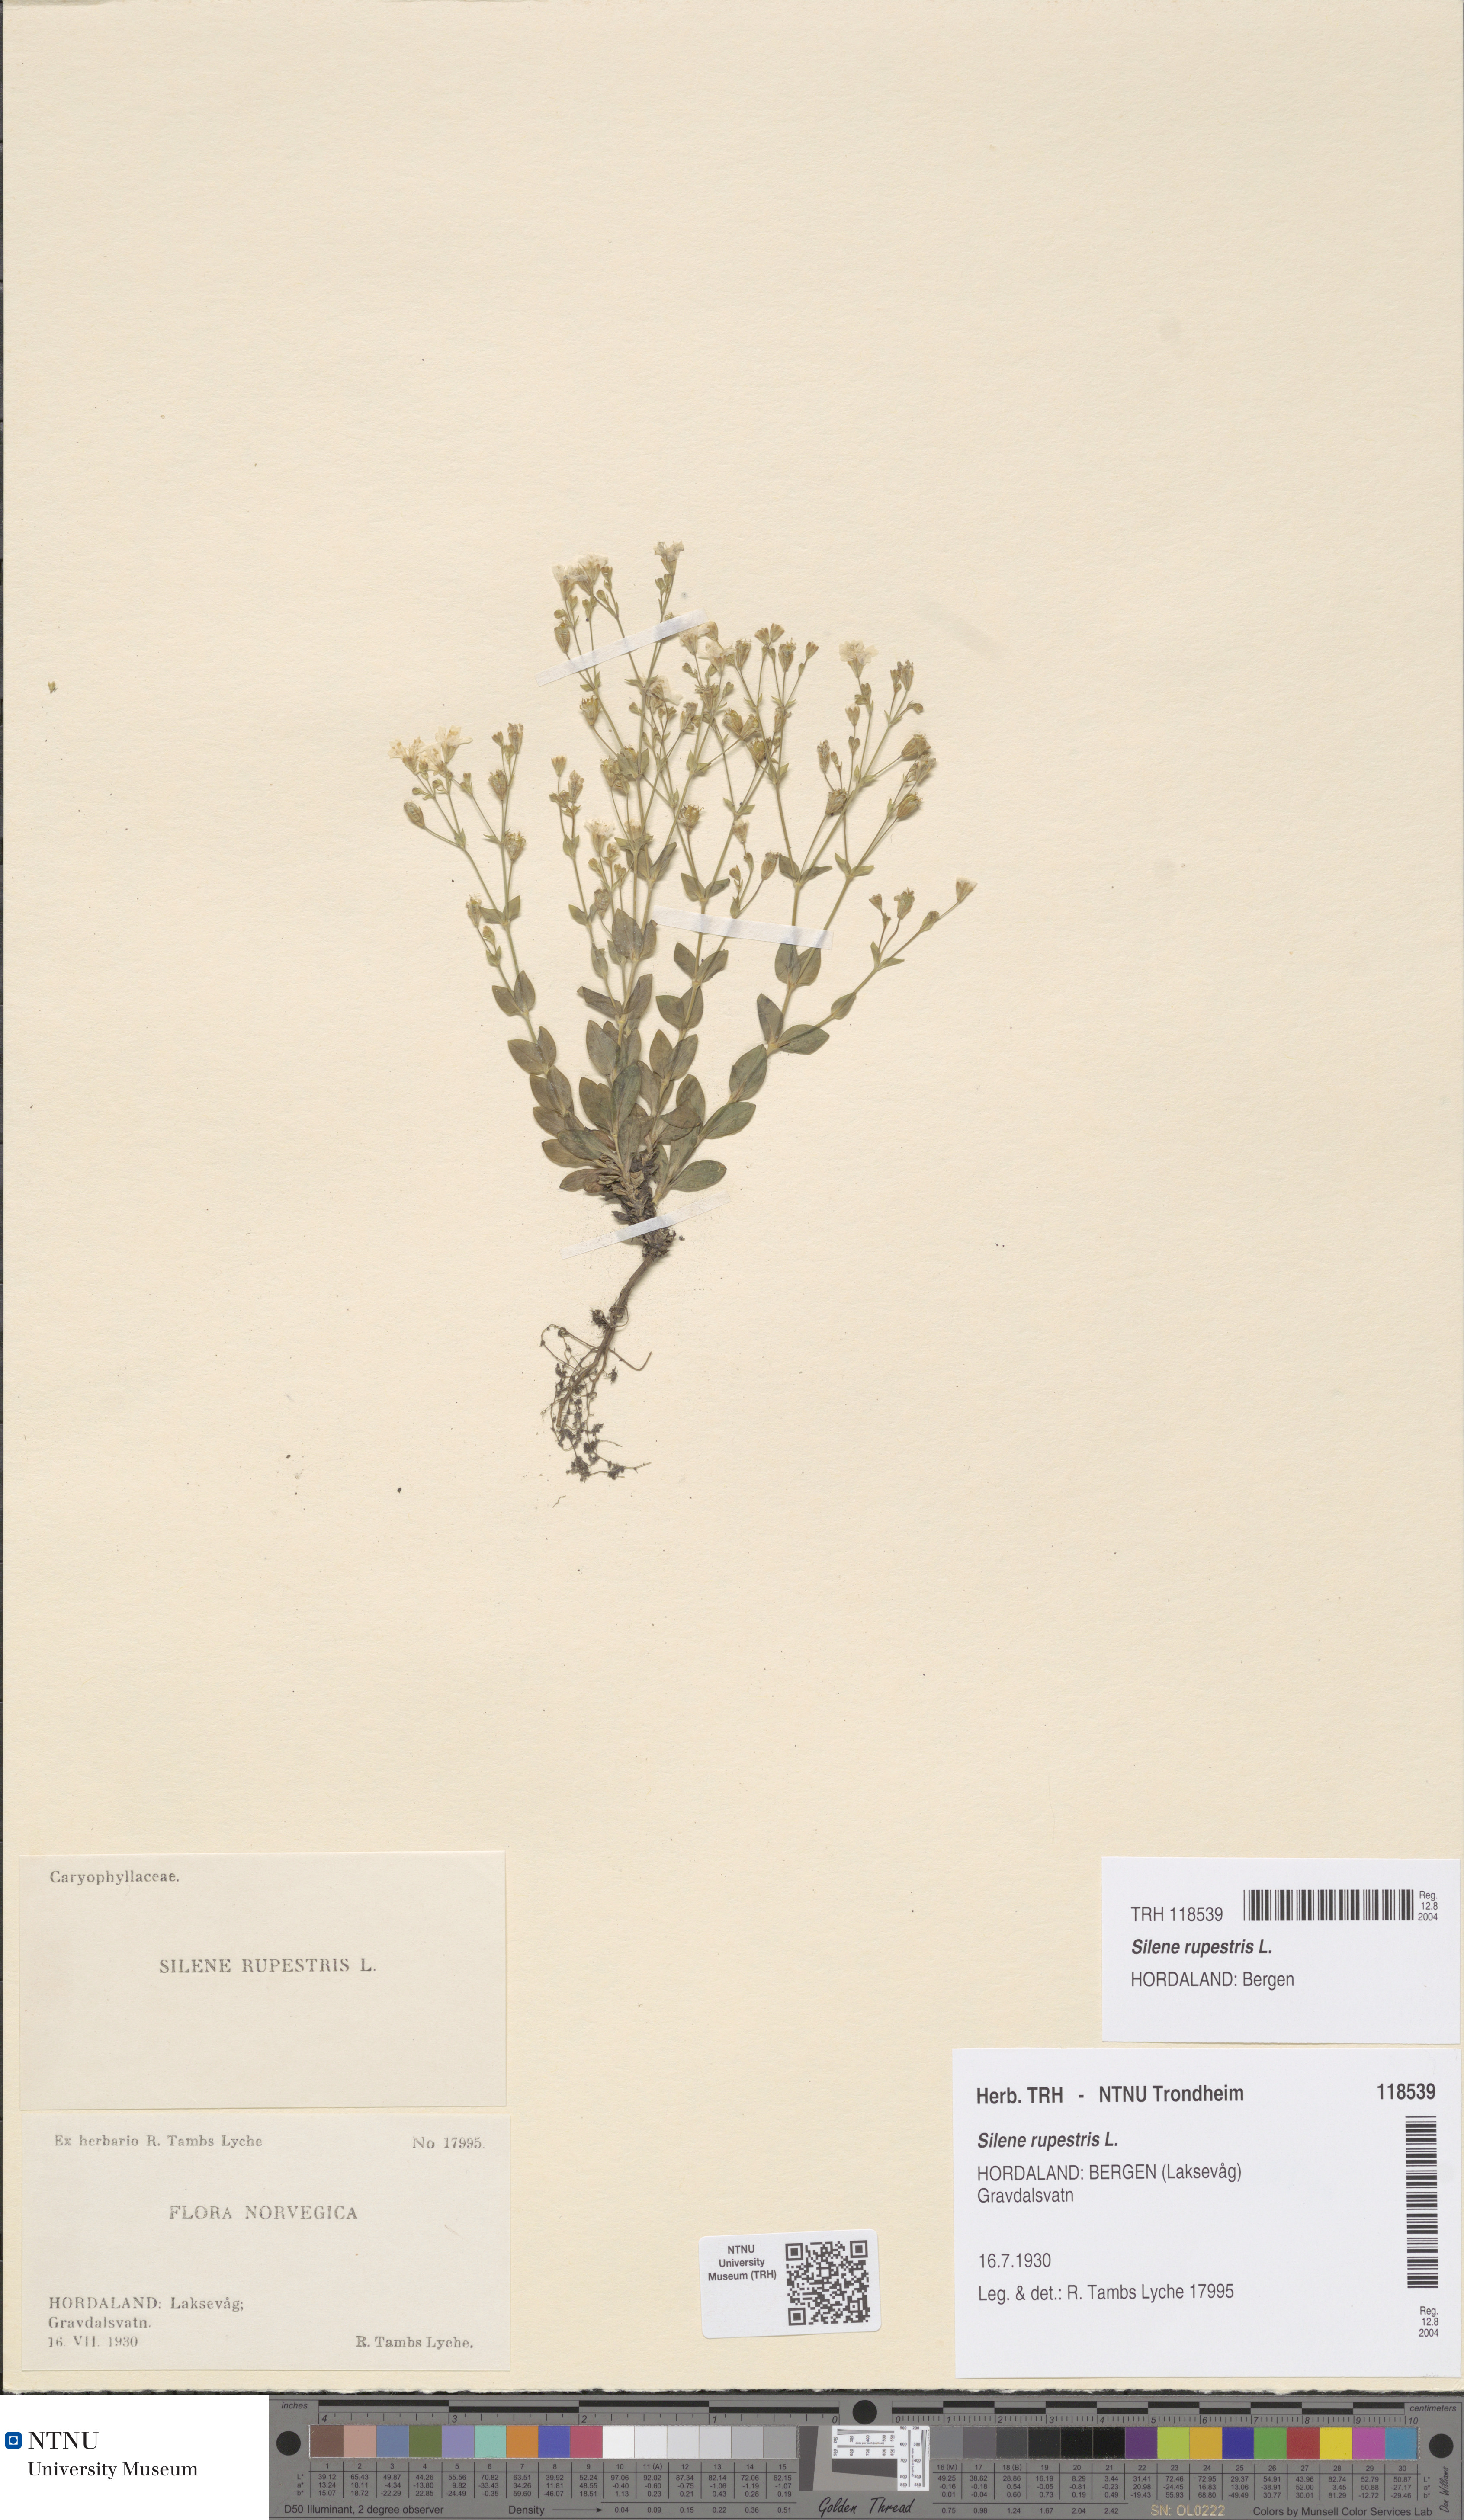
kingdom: Plantae
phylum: Tracheophyta
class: Magnoliopsida
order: Caryophyllales
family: Caryophyllaceae
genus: Atocion
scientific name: Atocion rupestre
